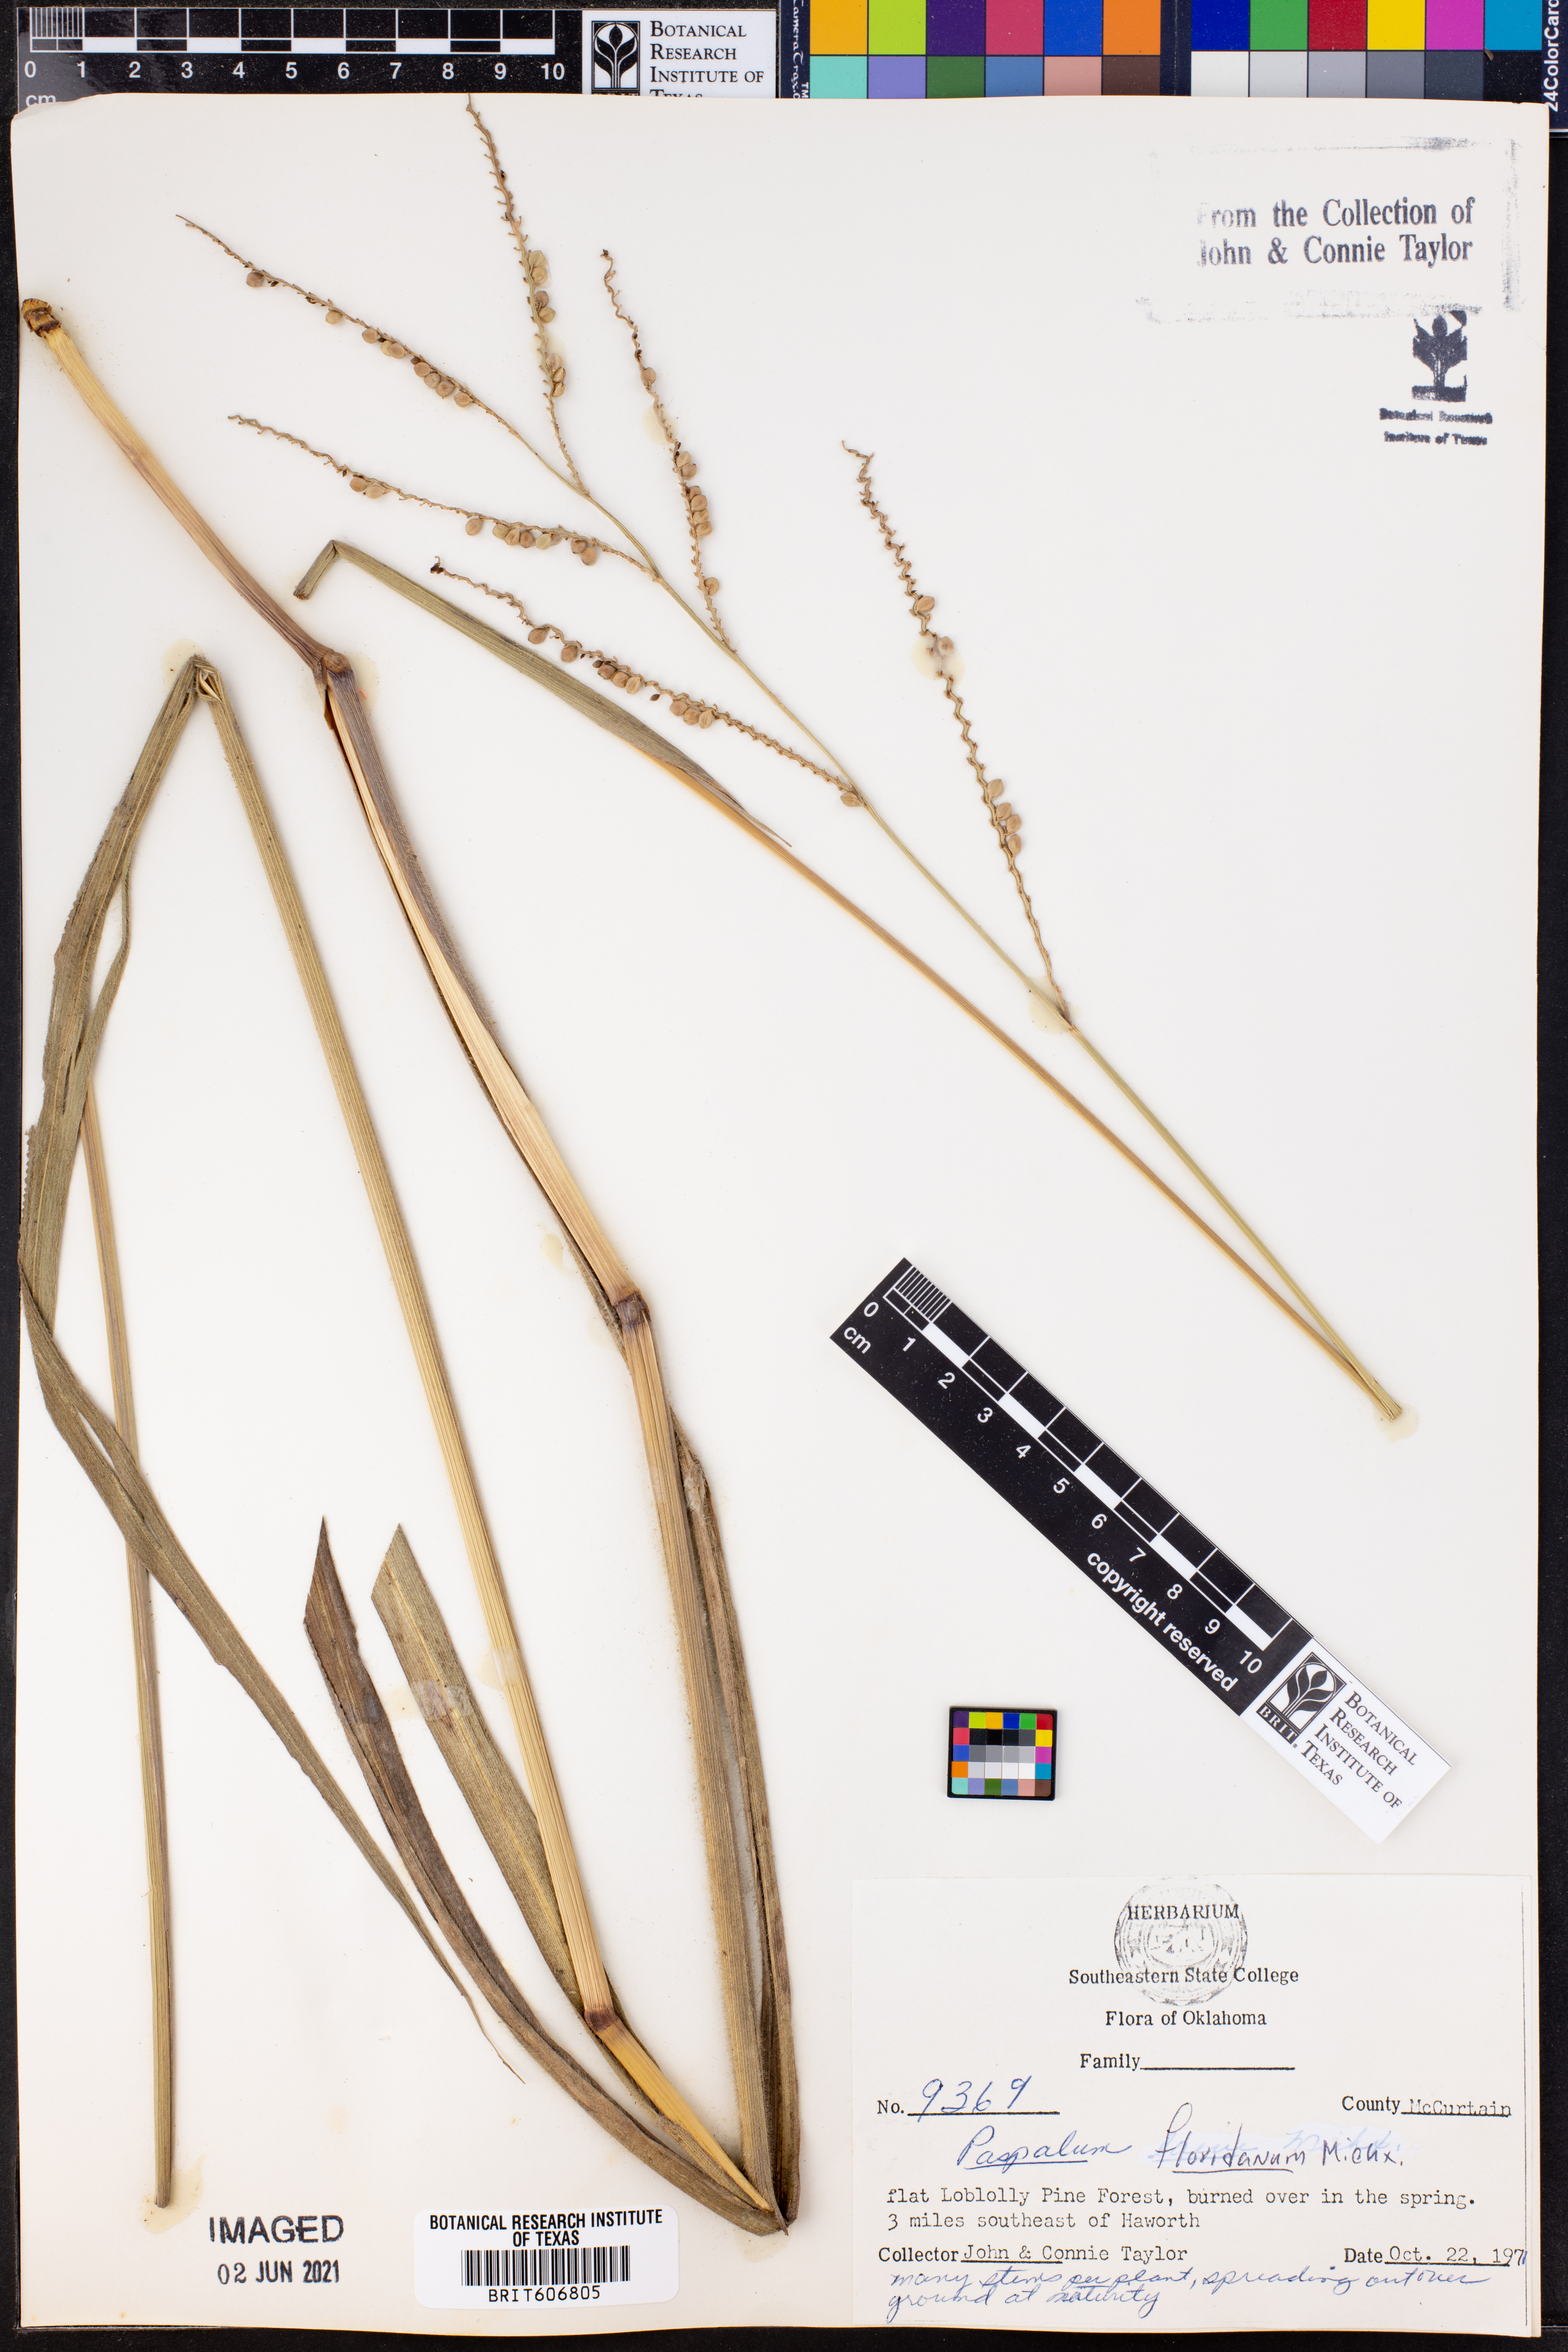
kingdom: Plantae
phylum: Tracheophyta
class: Liliopsida
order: Poales
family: Poaceae
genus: Paspalum
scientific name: Paspalum floridanum
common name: Florida paspalum
